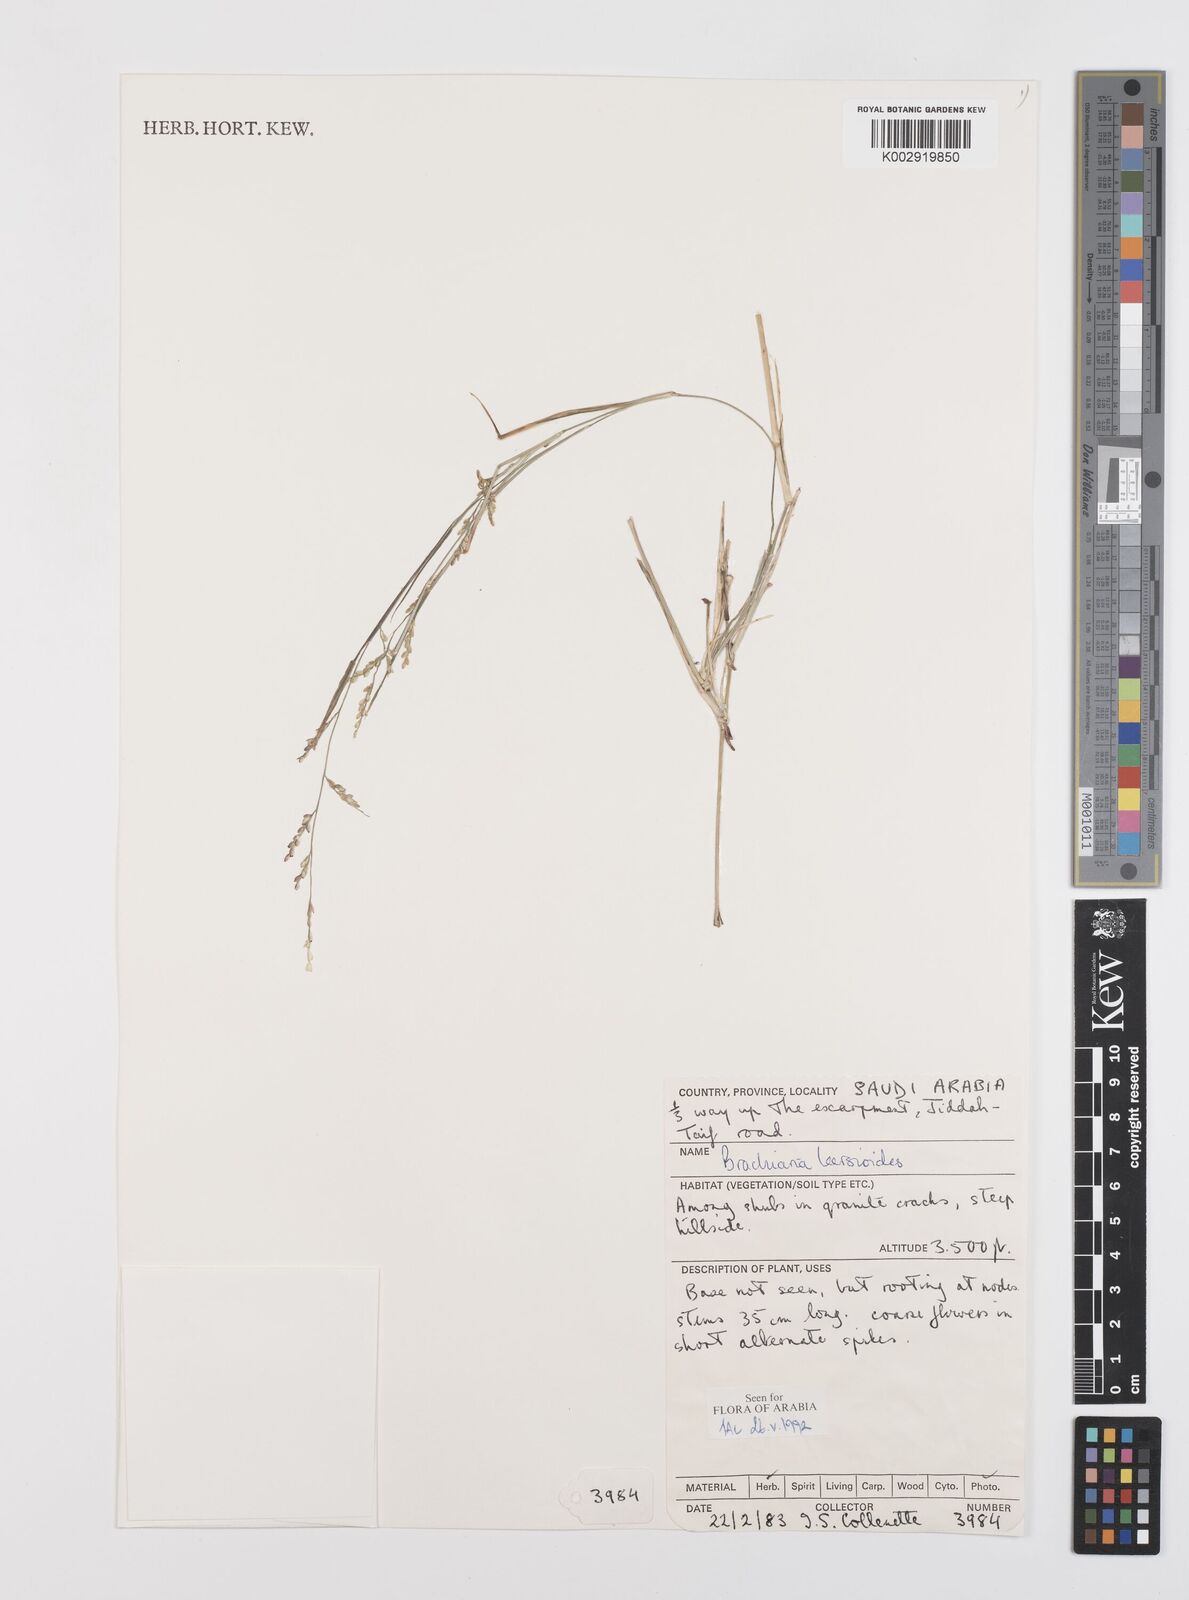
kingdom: Plantae
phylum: Tracheophyta
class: Liliopsida
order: Poales
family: Poaceae
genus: Urochloa
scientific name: Urochloa leersioides
